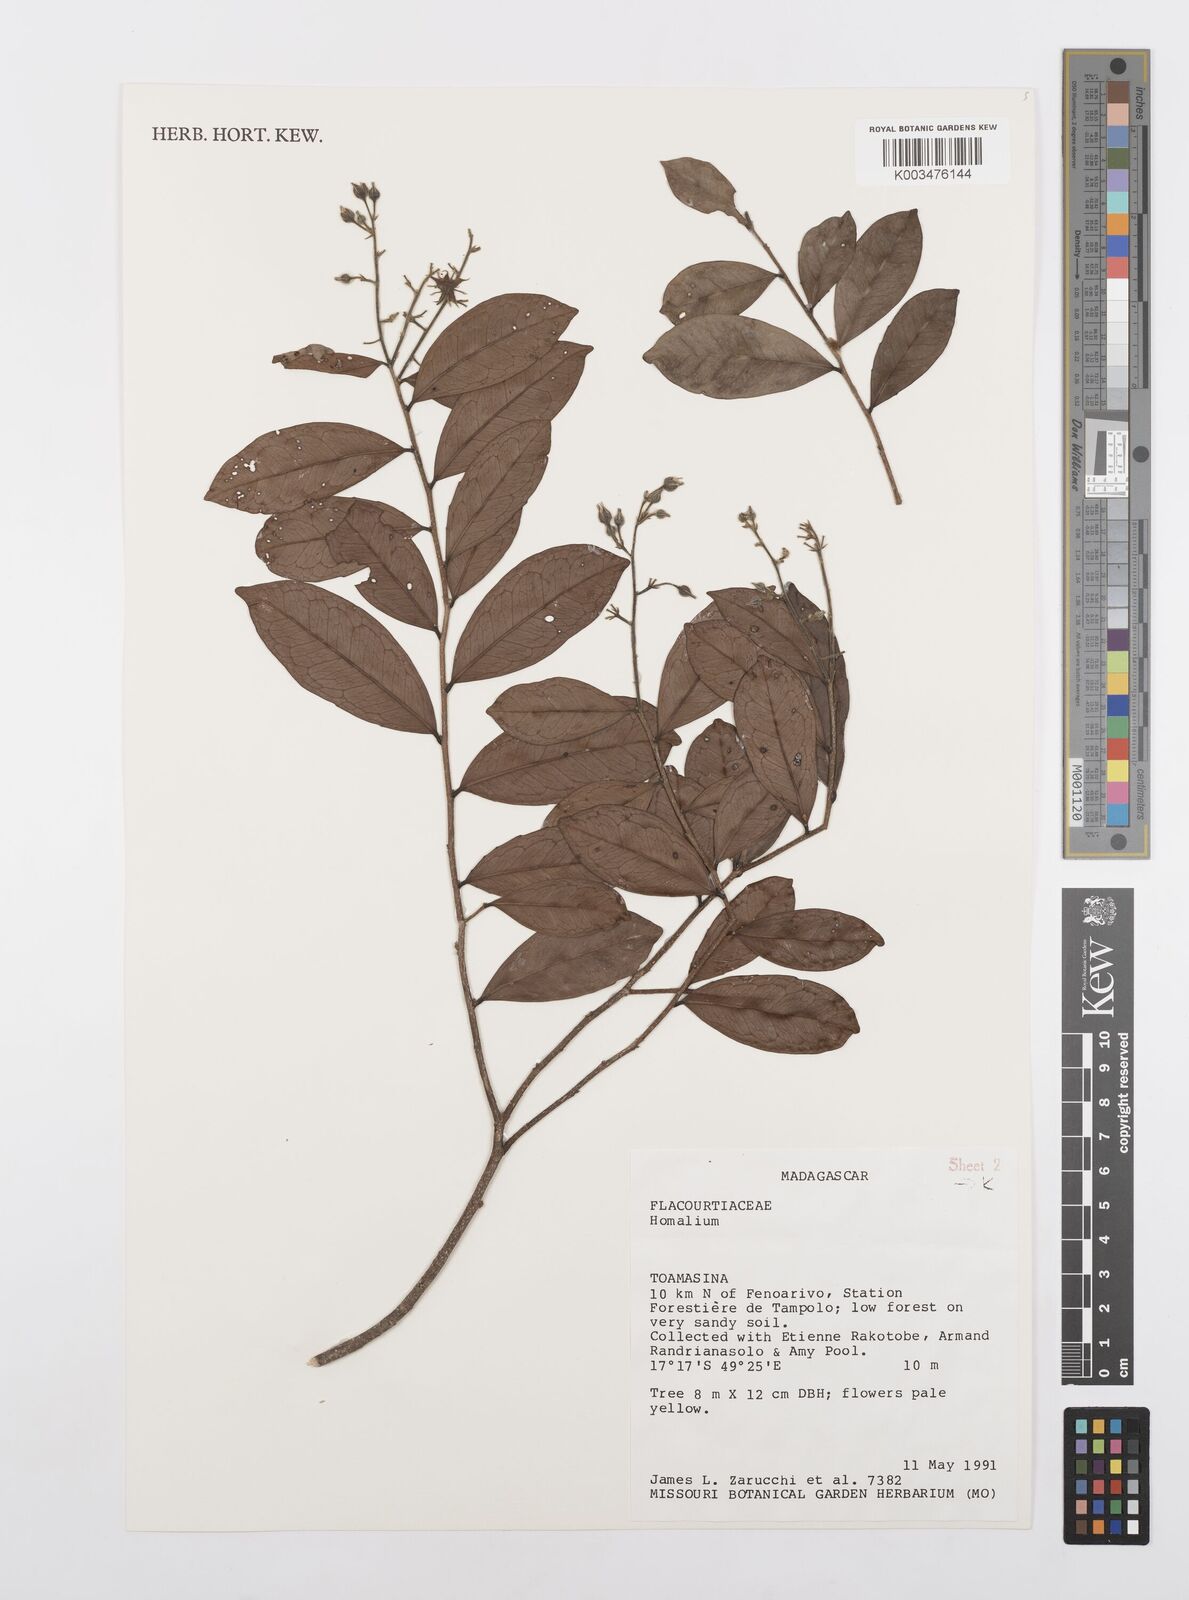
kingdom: Plantae
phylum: Tracheophyta
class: Magnoliopsida
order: Malpighiales
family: Salicaceae
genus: Homalium
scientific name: Homalium
